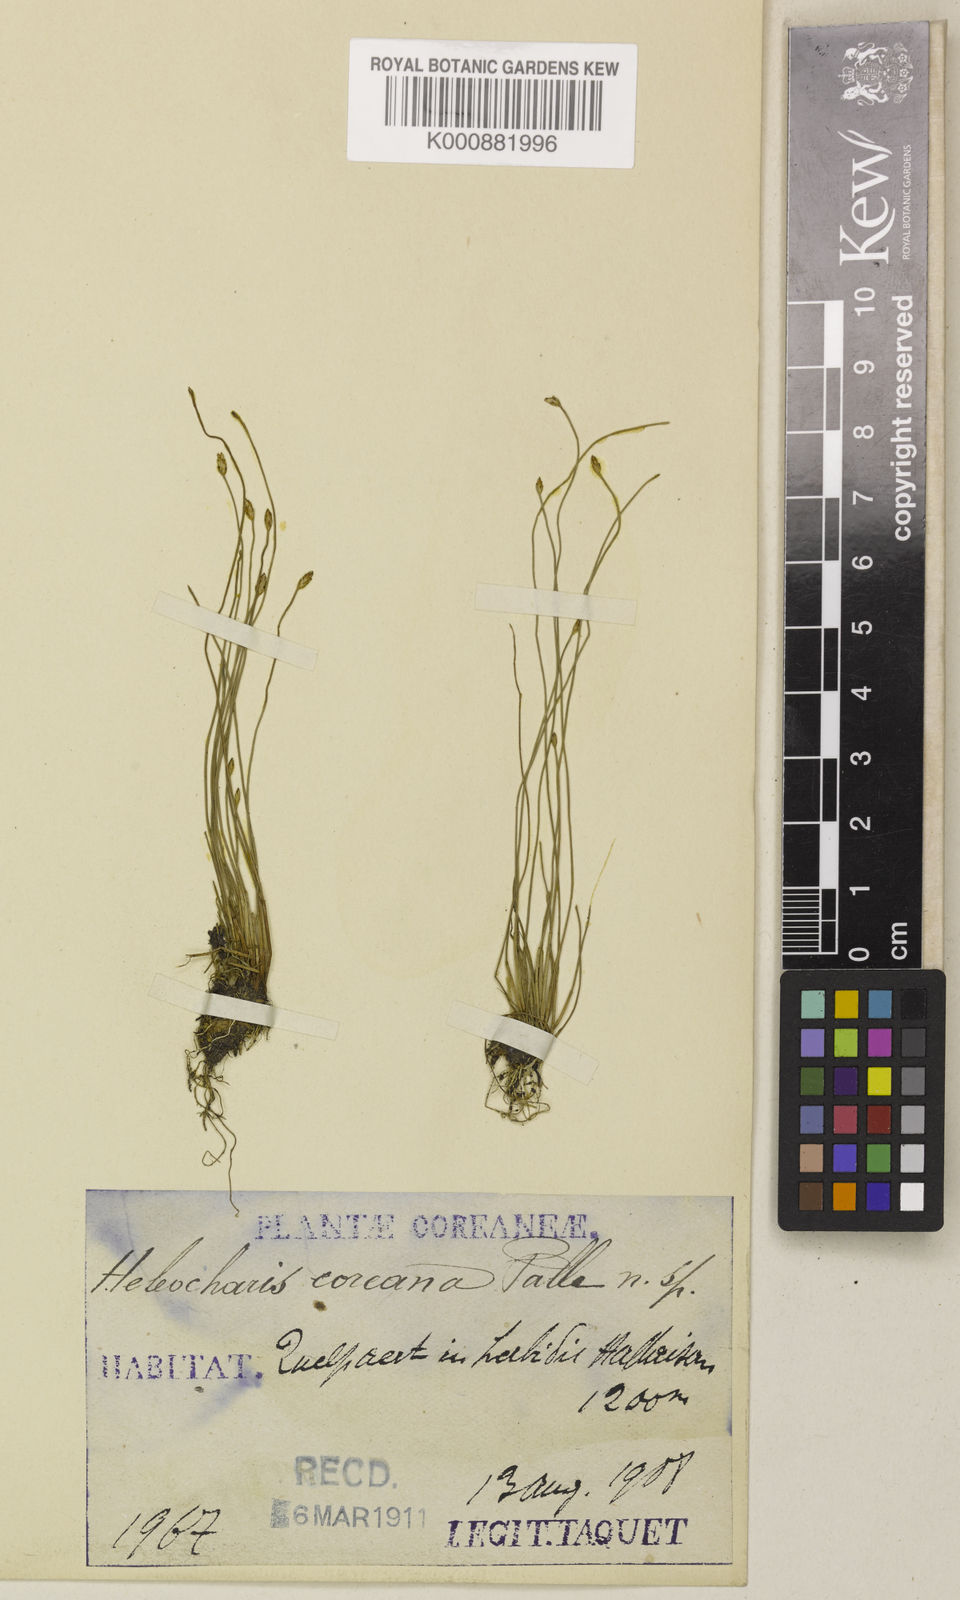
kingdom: Plantae
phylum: Tracheophyta
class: Liliopsida
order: Poales
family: Cyperaceae
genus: Eleocharis
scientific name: Eleocharis
